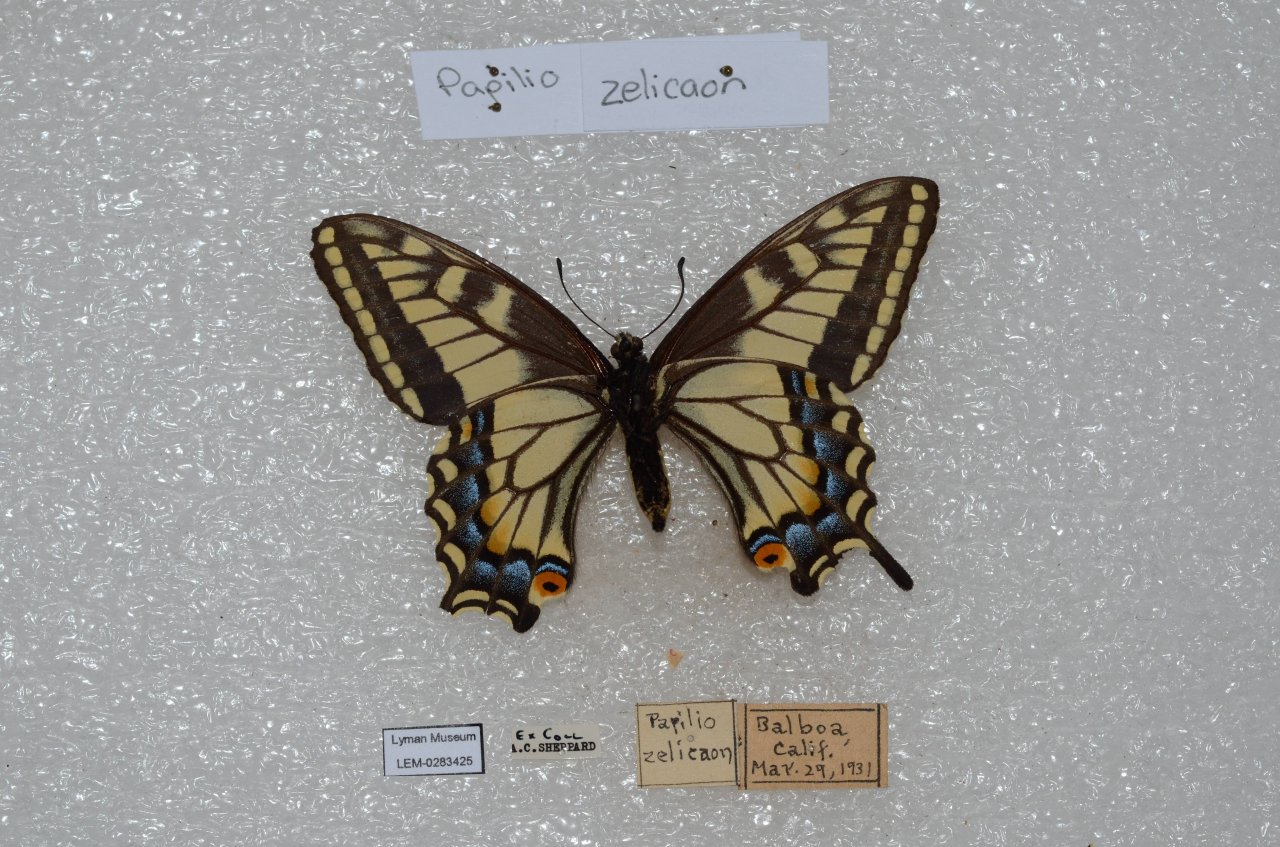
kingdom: Animalia
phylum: Arthropoda
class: Insecta
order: Lepidoptera
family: Papilionidae
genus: Papilio
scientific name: Papilio zelicaon
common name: Anise Swallowtail
